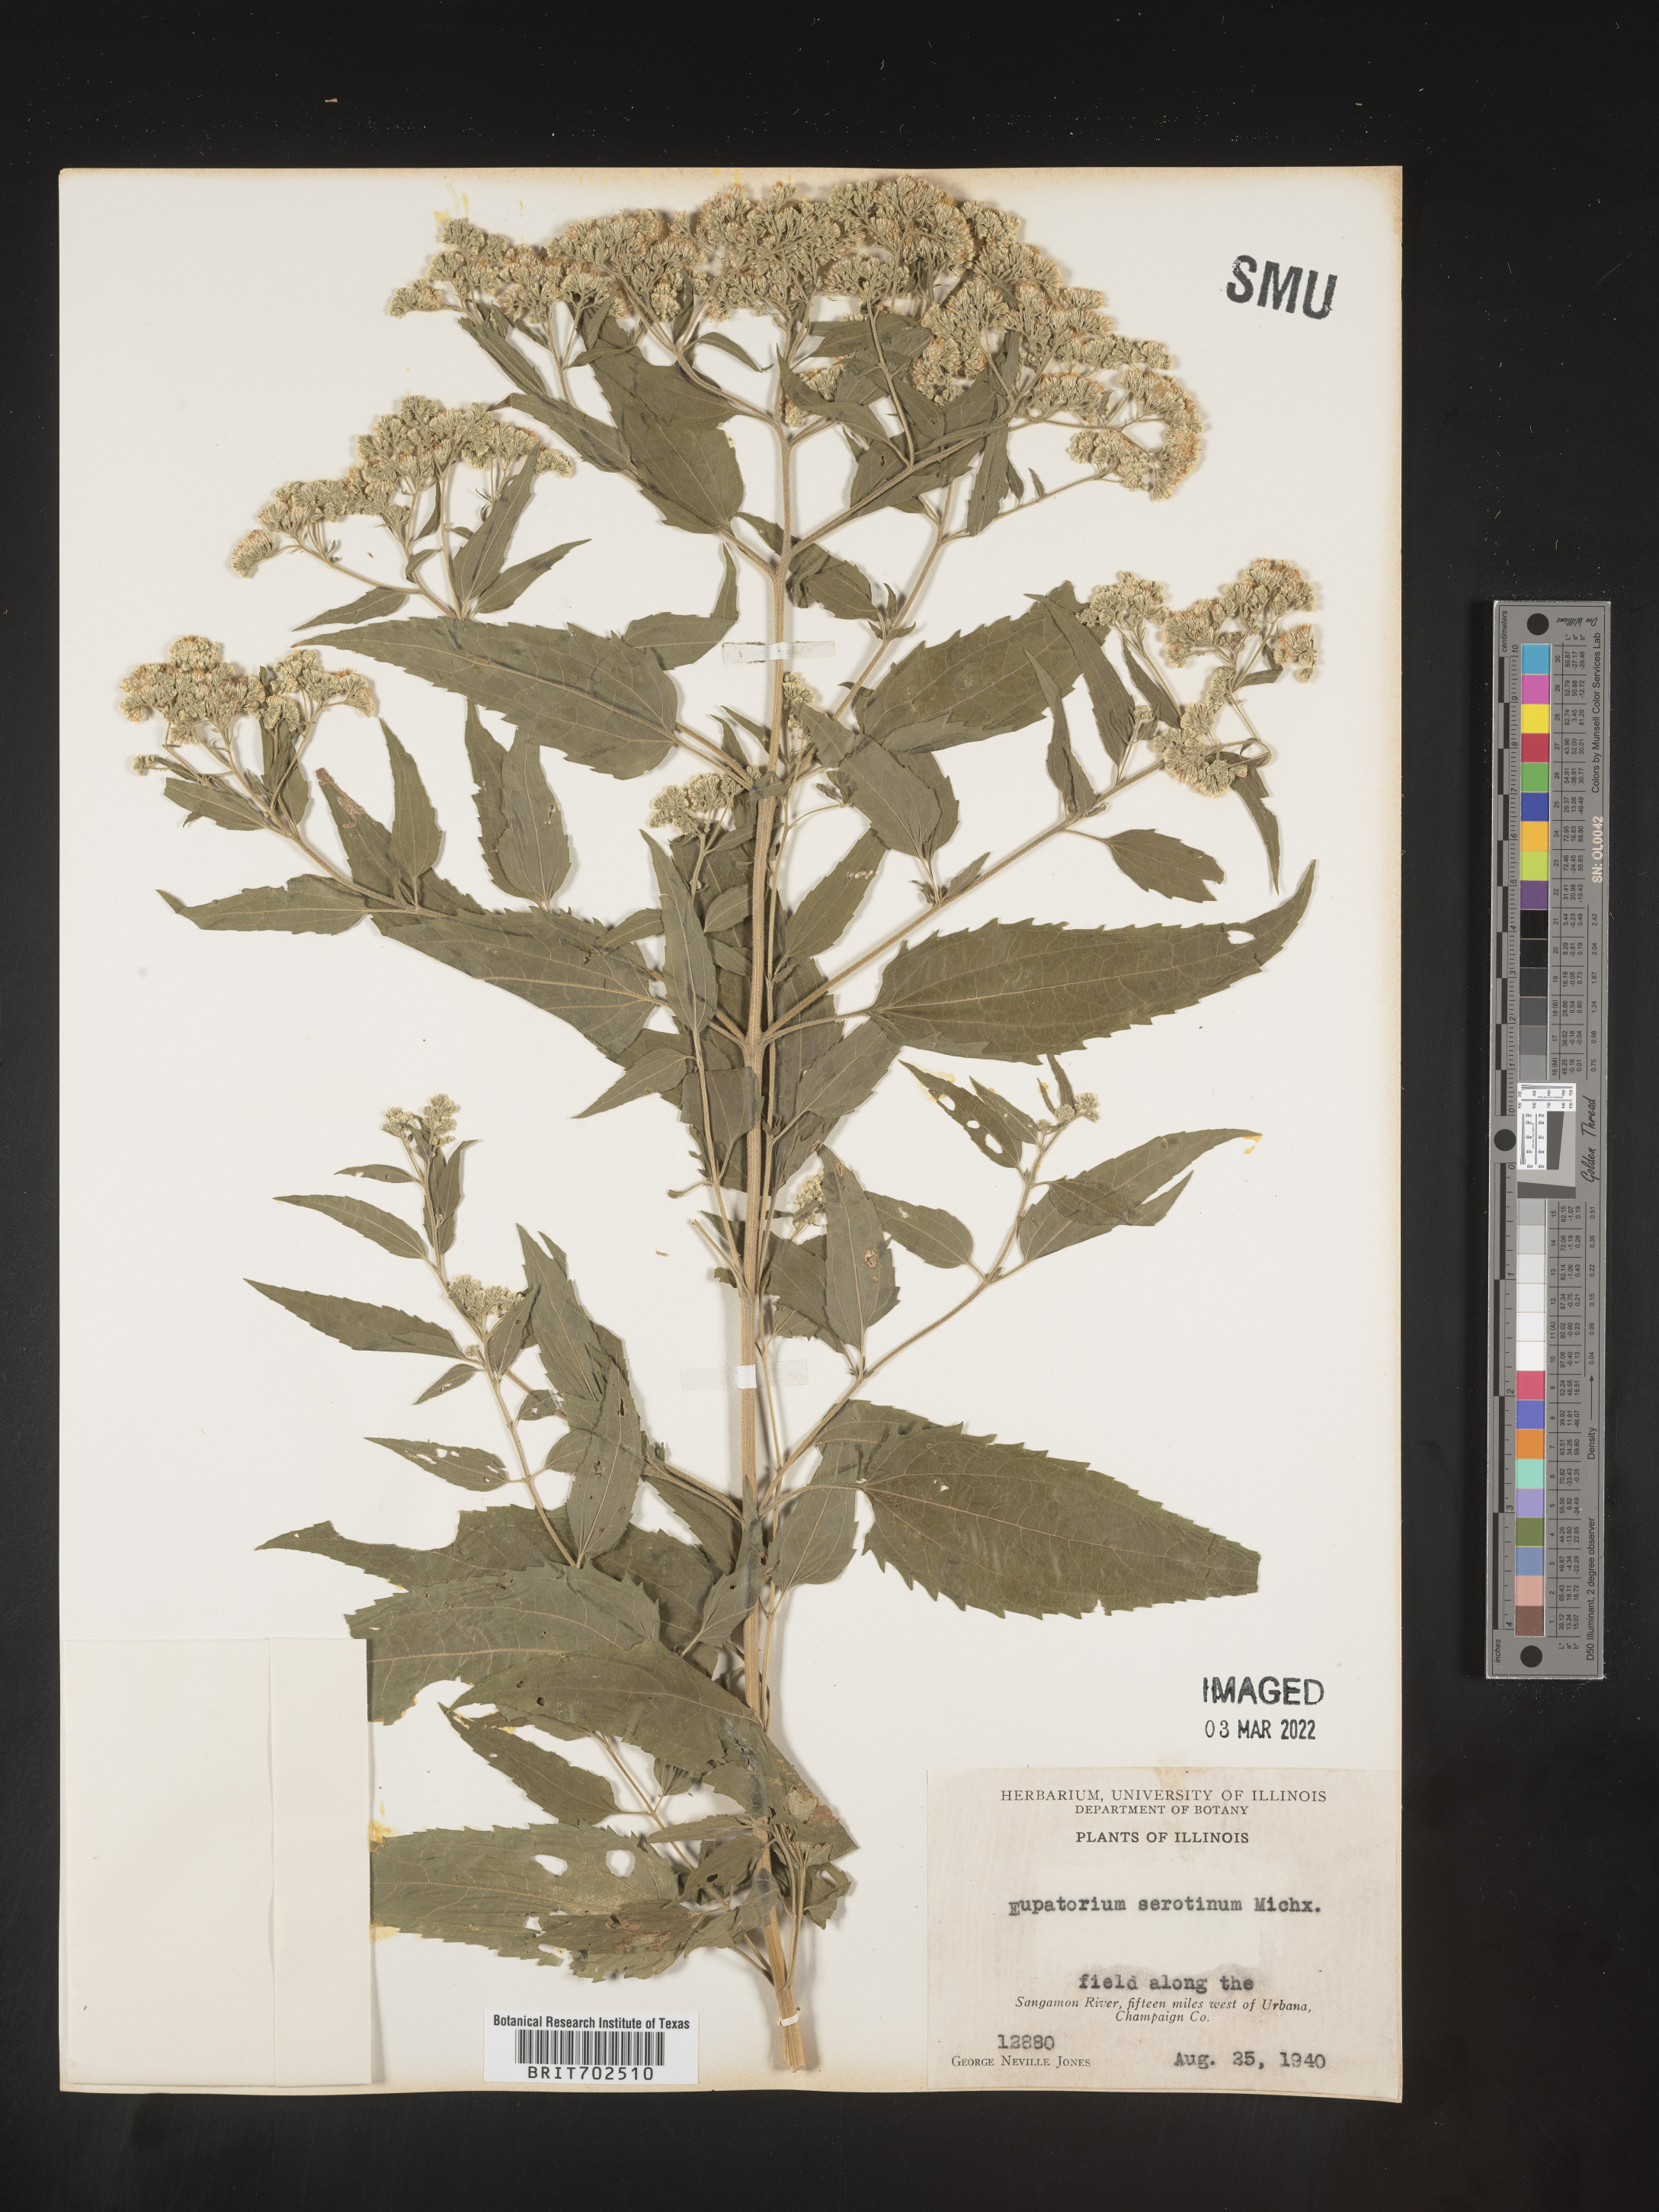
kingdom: Plantae
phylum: Tracheophyta
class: Magnoliopsida
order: Asterales
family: Asteraceae
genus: Eupatorium
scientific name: Eupatorium serotinum
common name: Late boneset
